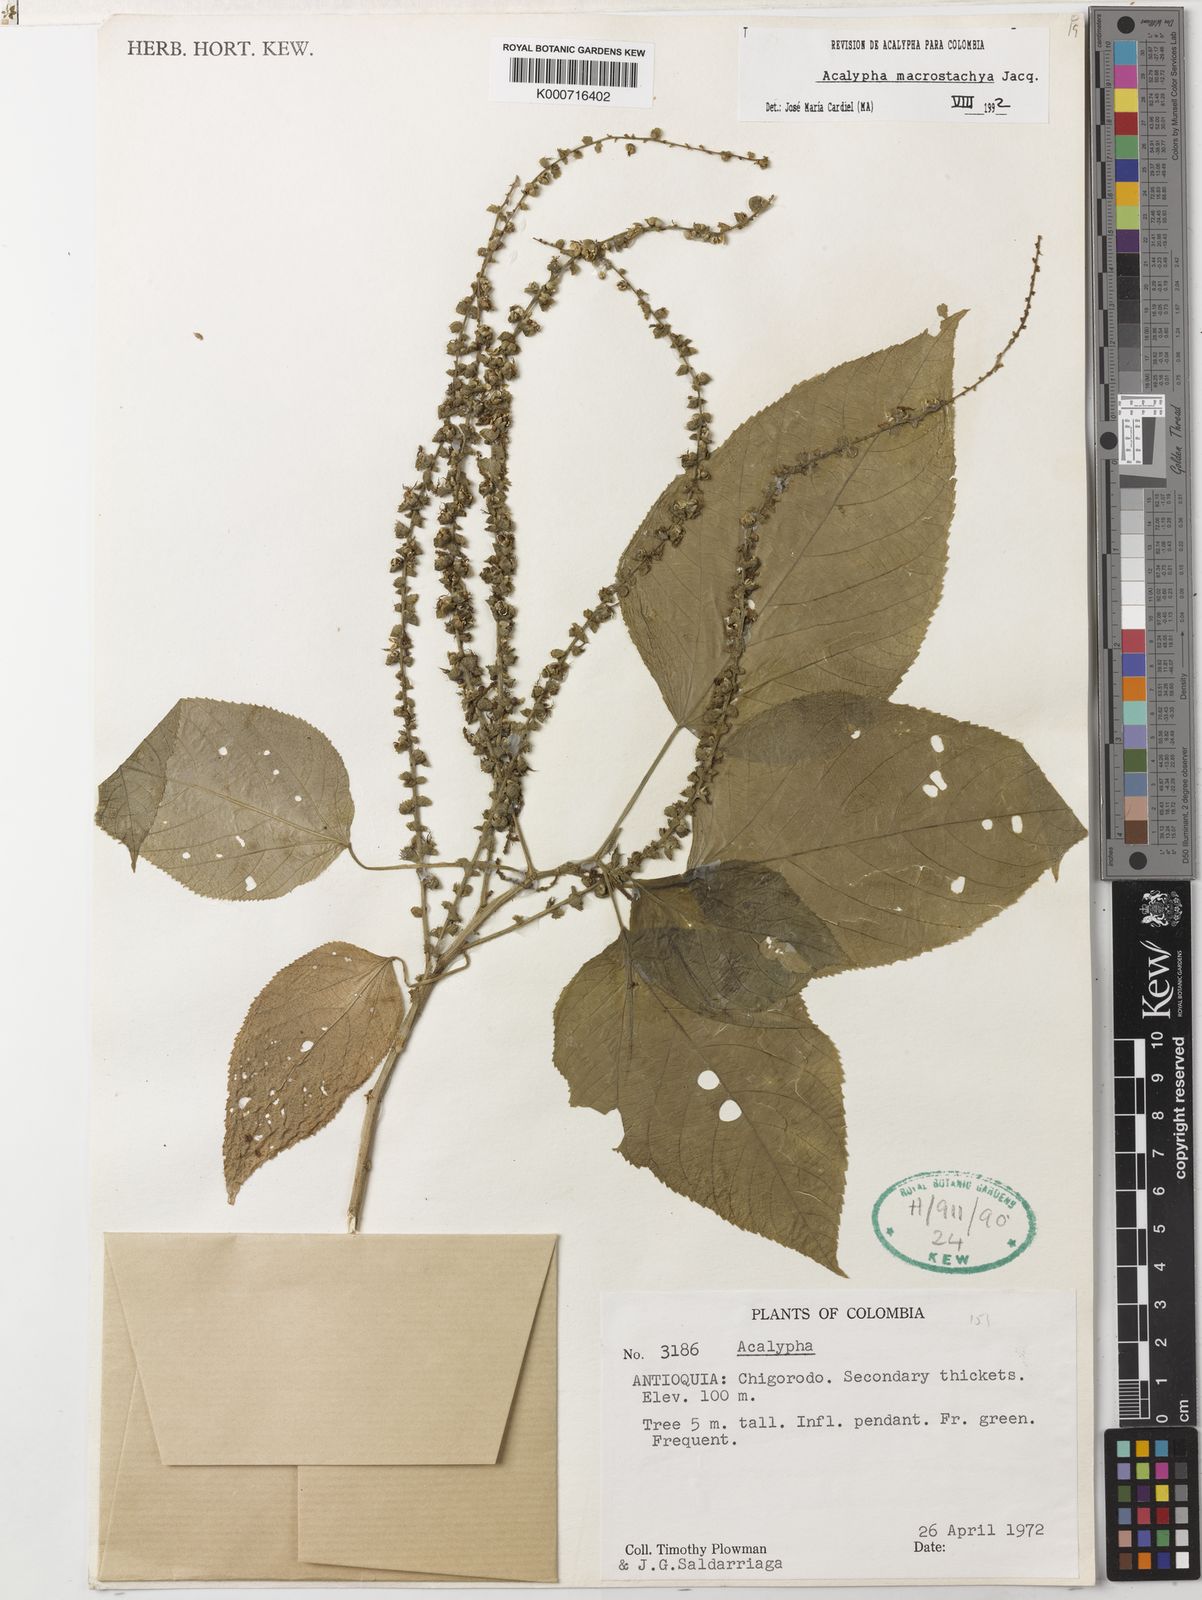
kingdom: Plantae
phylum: Tracheophyta
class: Magnoliopsida
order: Malpighiales
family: Euphorbiaceae
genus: Acalypha
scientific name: Acalypha macrostachya
